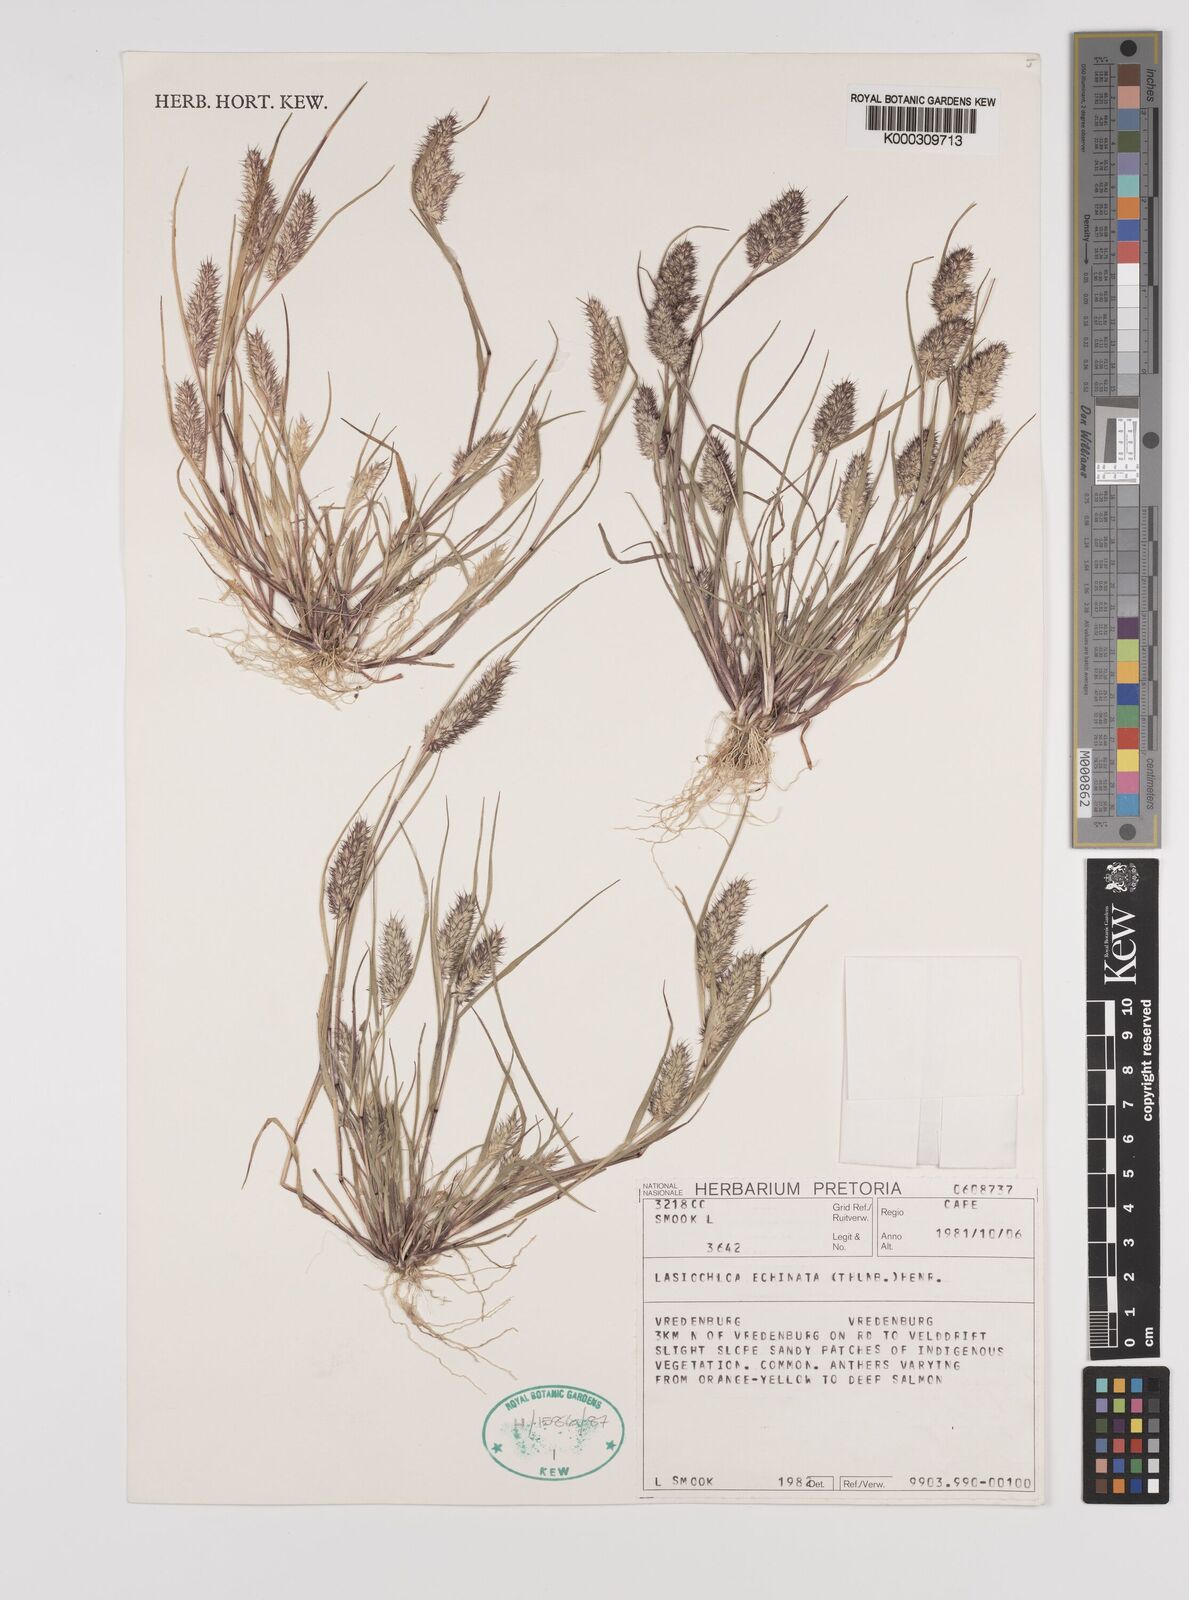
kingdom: Plantae
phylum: Tracheophyta
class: Liliopsida
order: Poales
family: Poaceae
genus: Tribolium
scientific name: Tribolium echinatum
